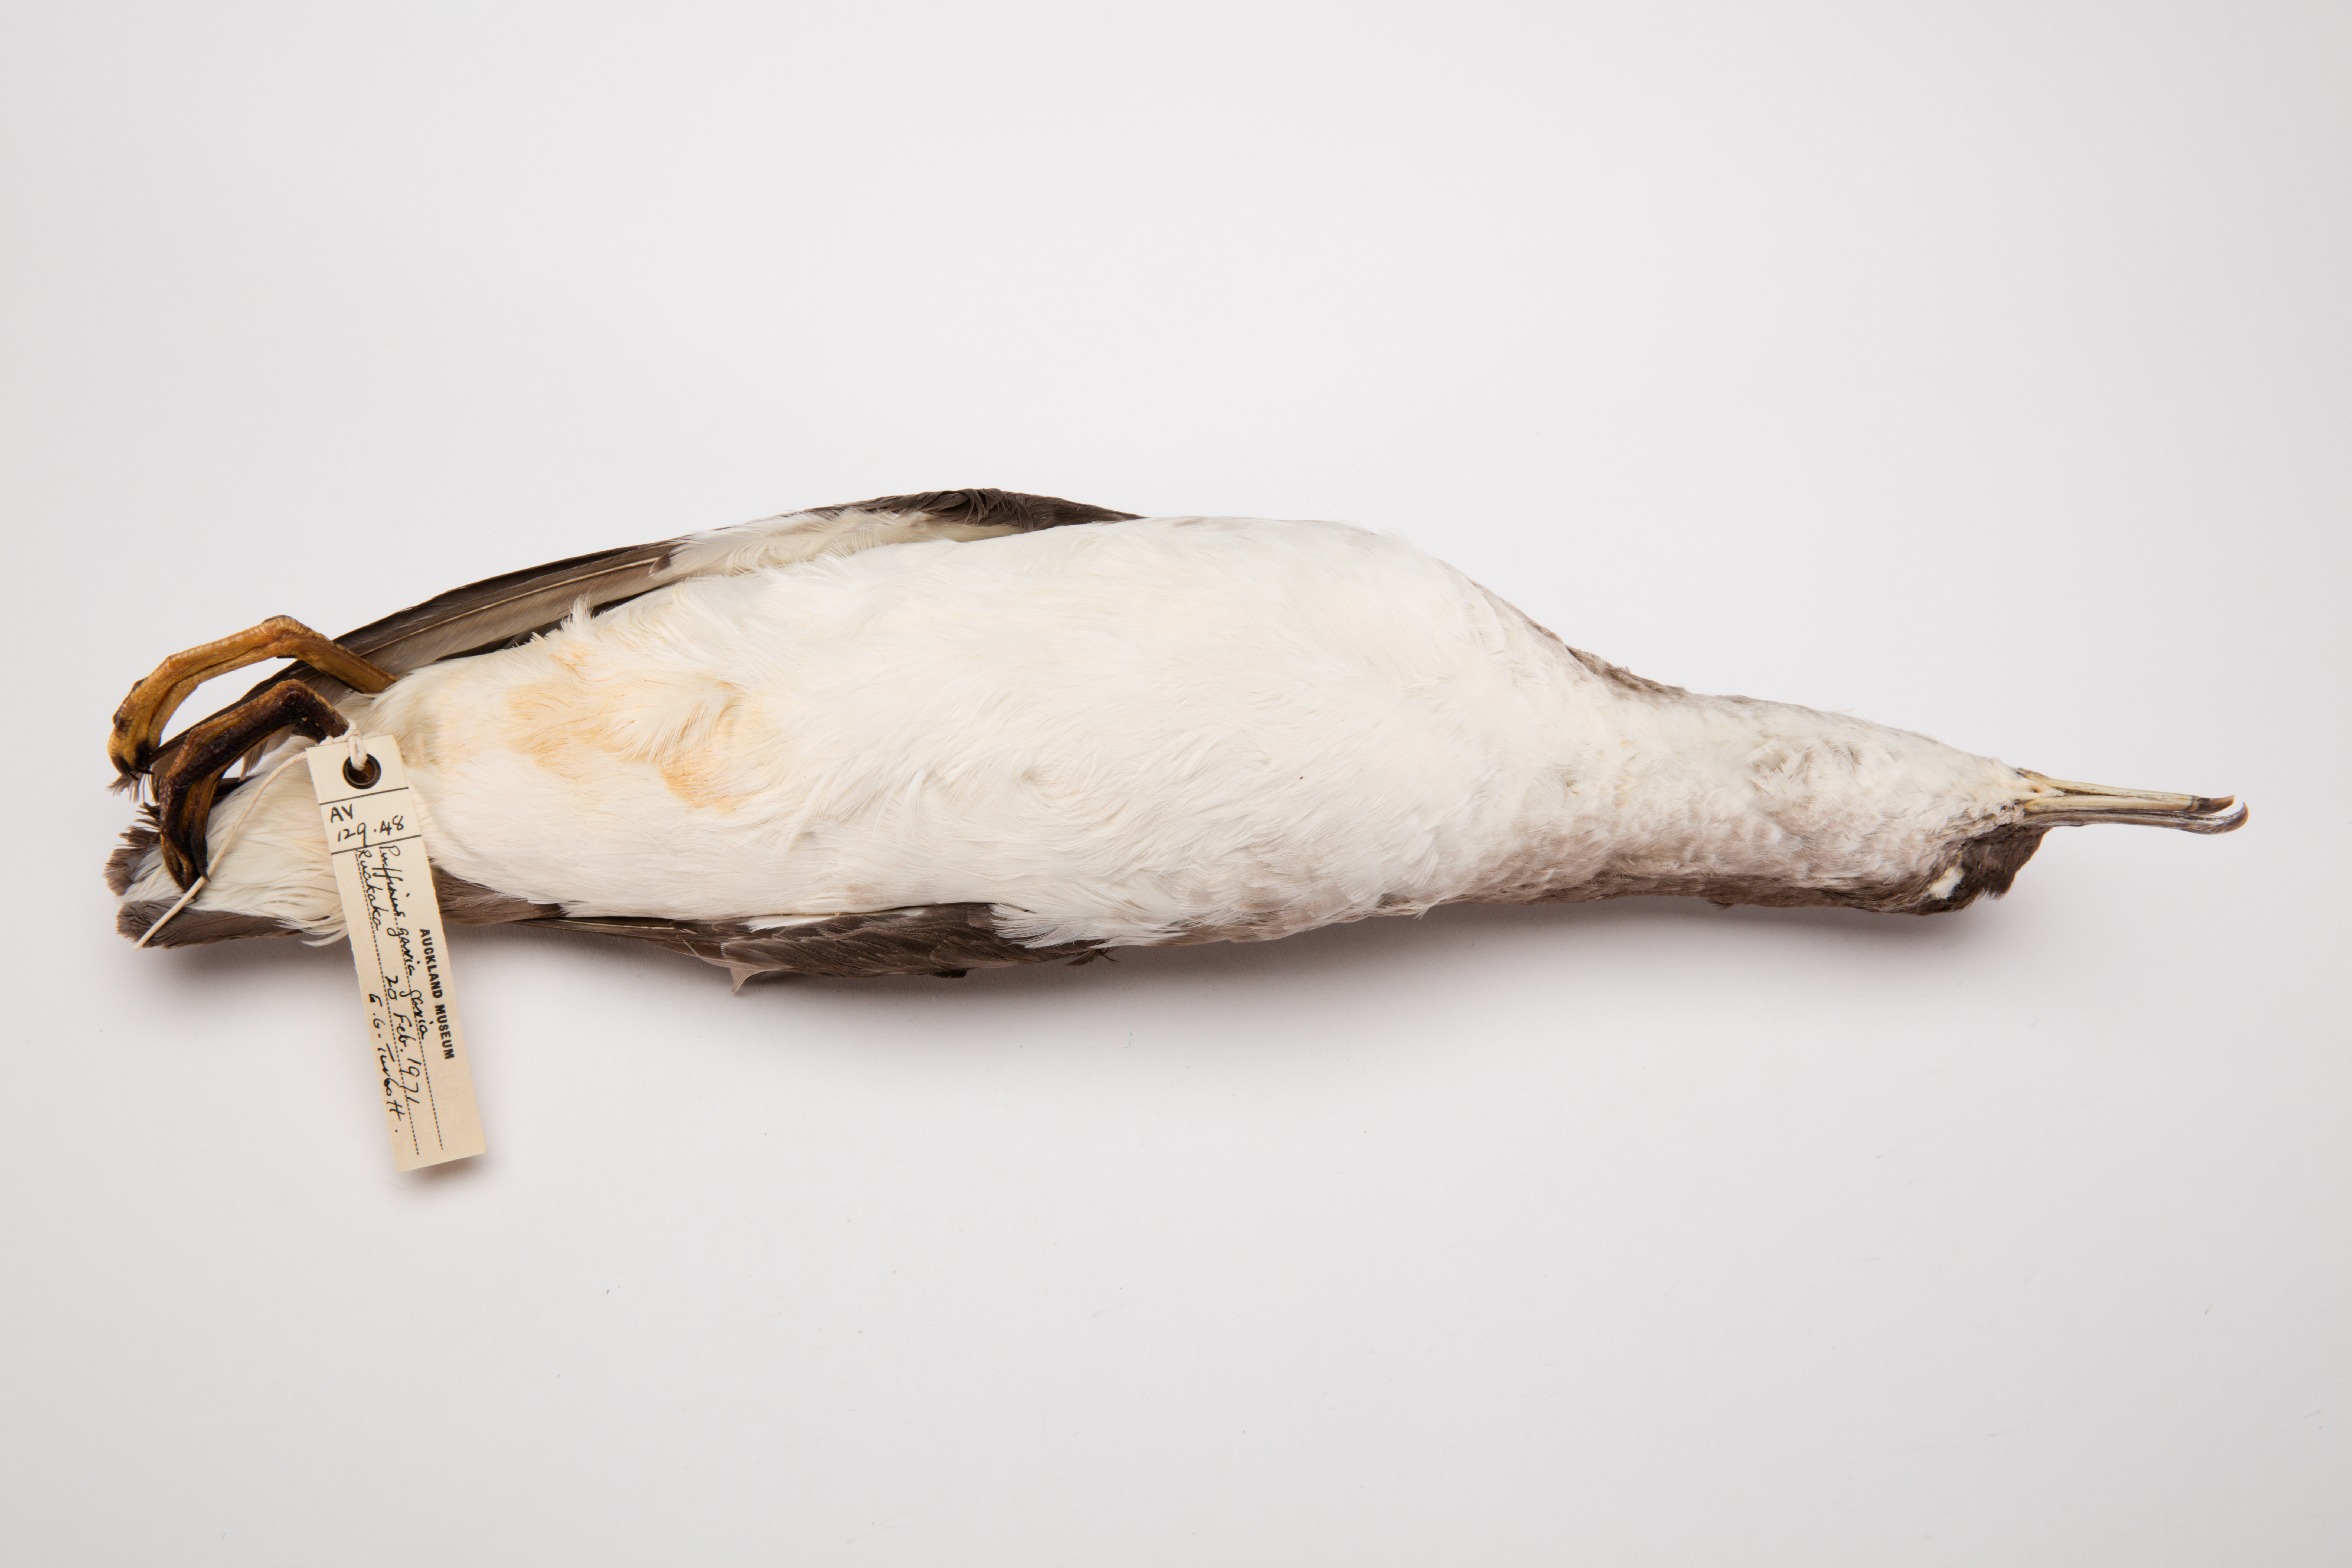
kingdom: Animalia
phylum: Chordata
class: Aves
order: Procellariiformes
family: Procellariidae
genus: Ardenna
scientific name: Ardenna
